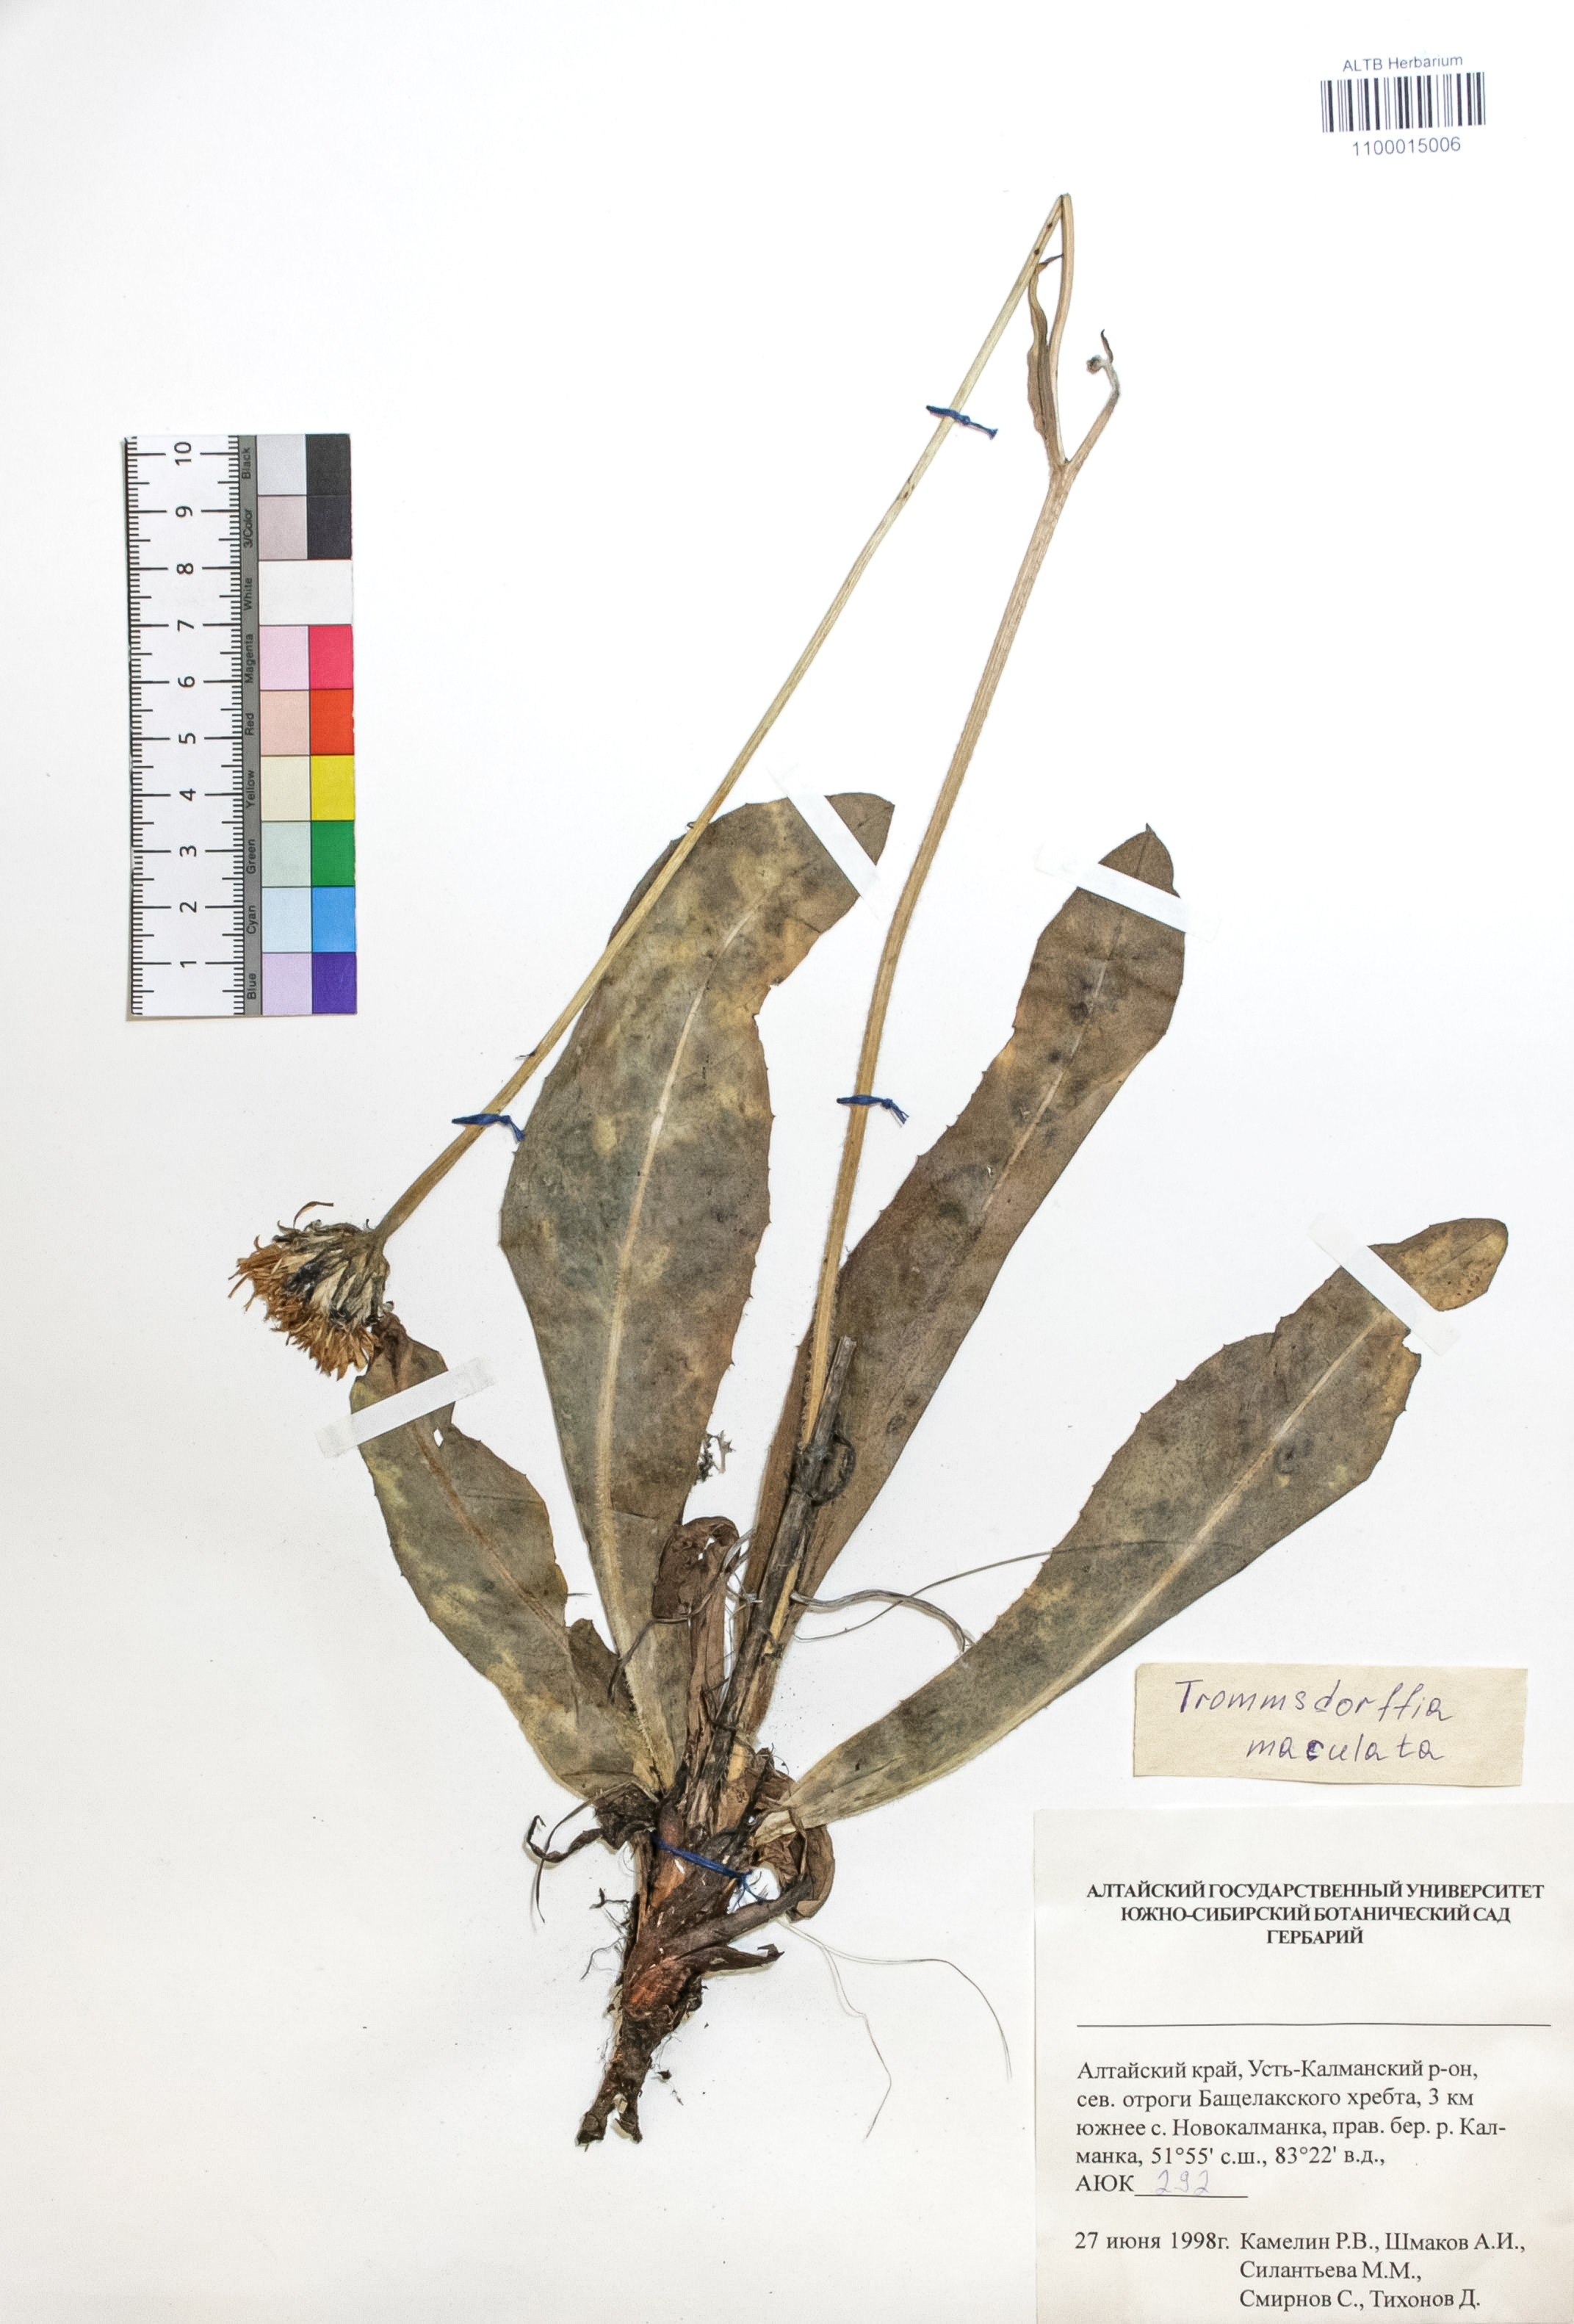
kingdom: Plantae
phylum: Tracheophyta
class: Magnoliopsida
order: Asterales
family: Asteraceae
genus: Trommsdorffia
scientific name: Trommsdorffia maculata
